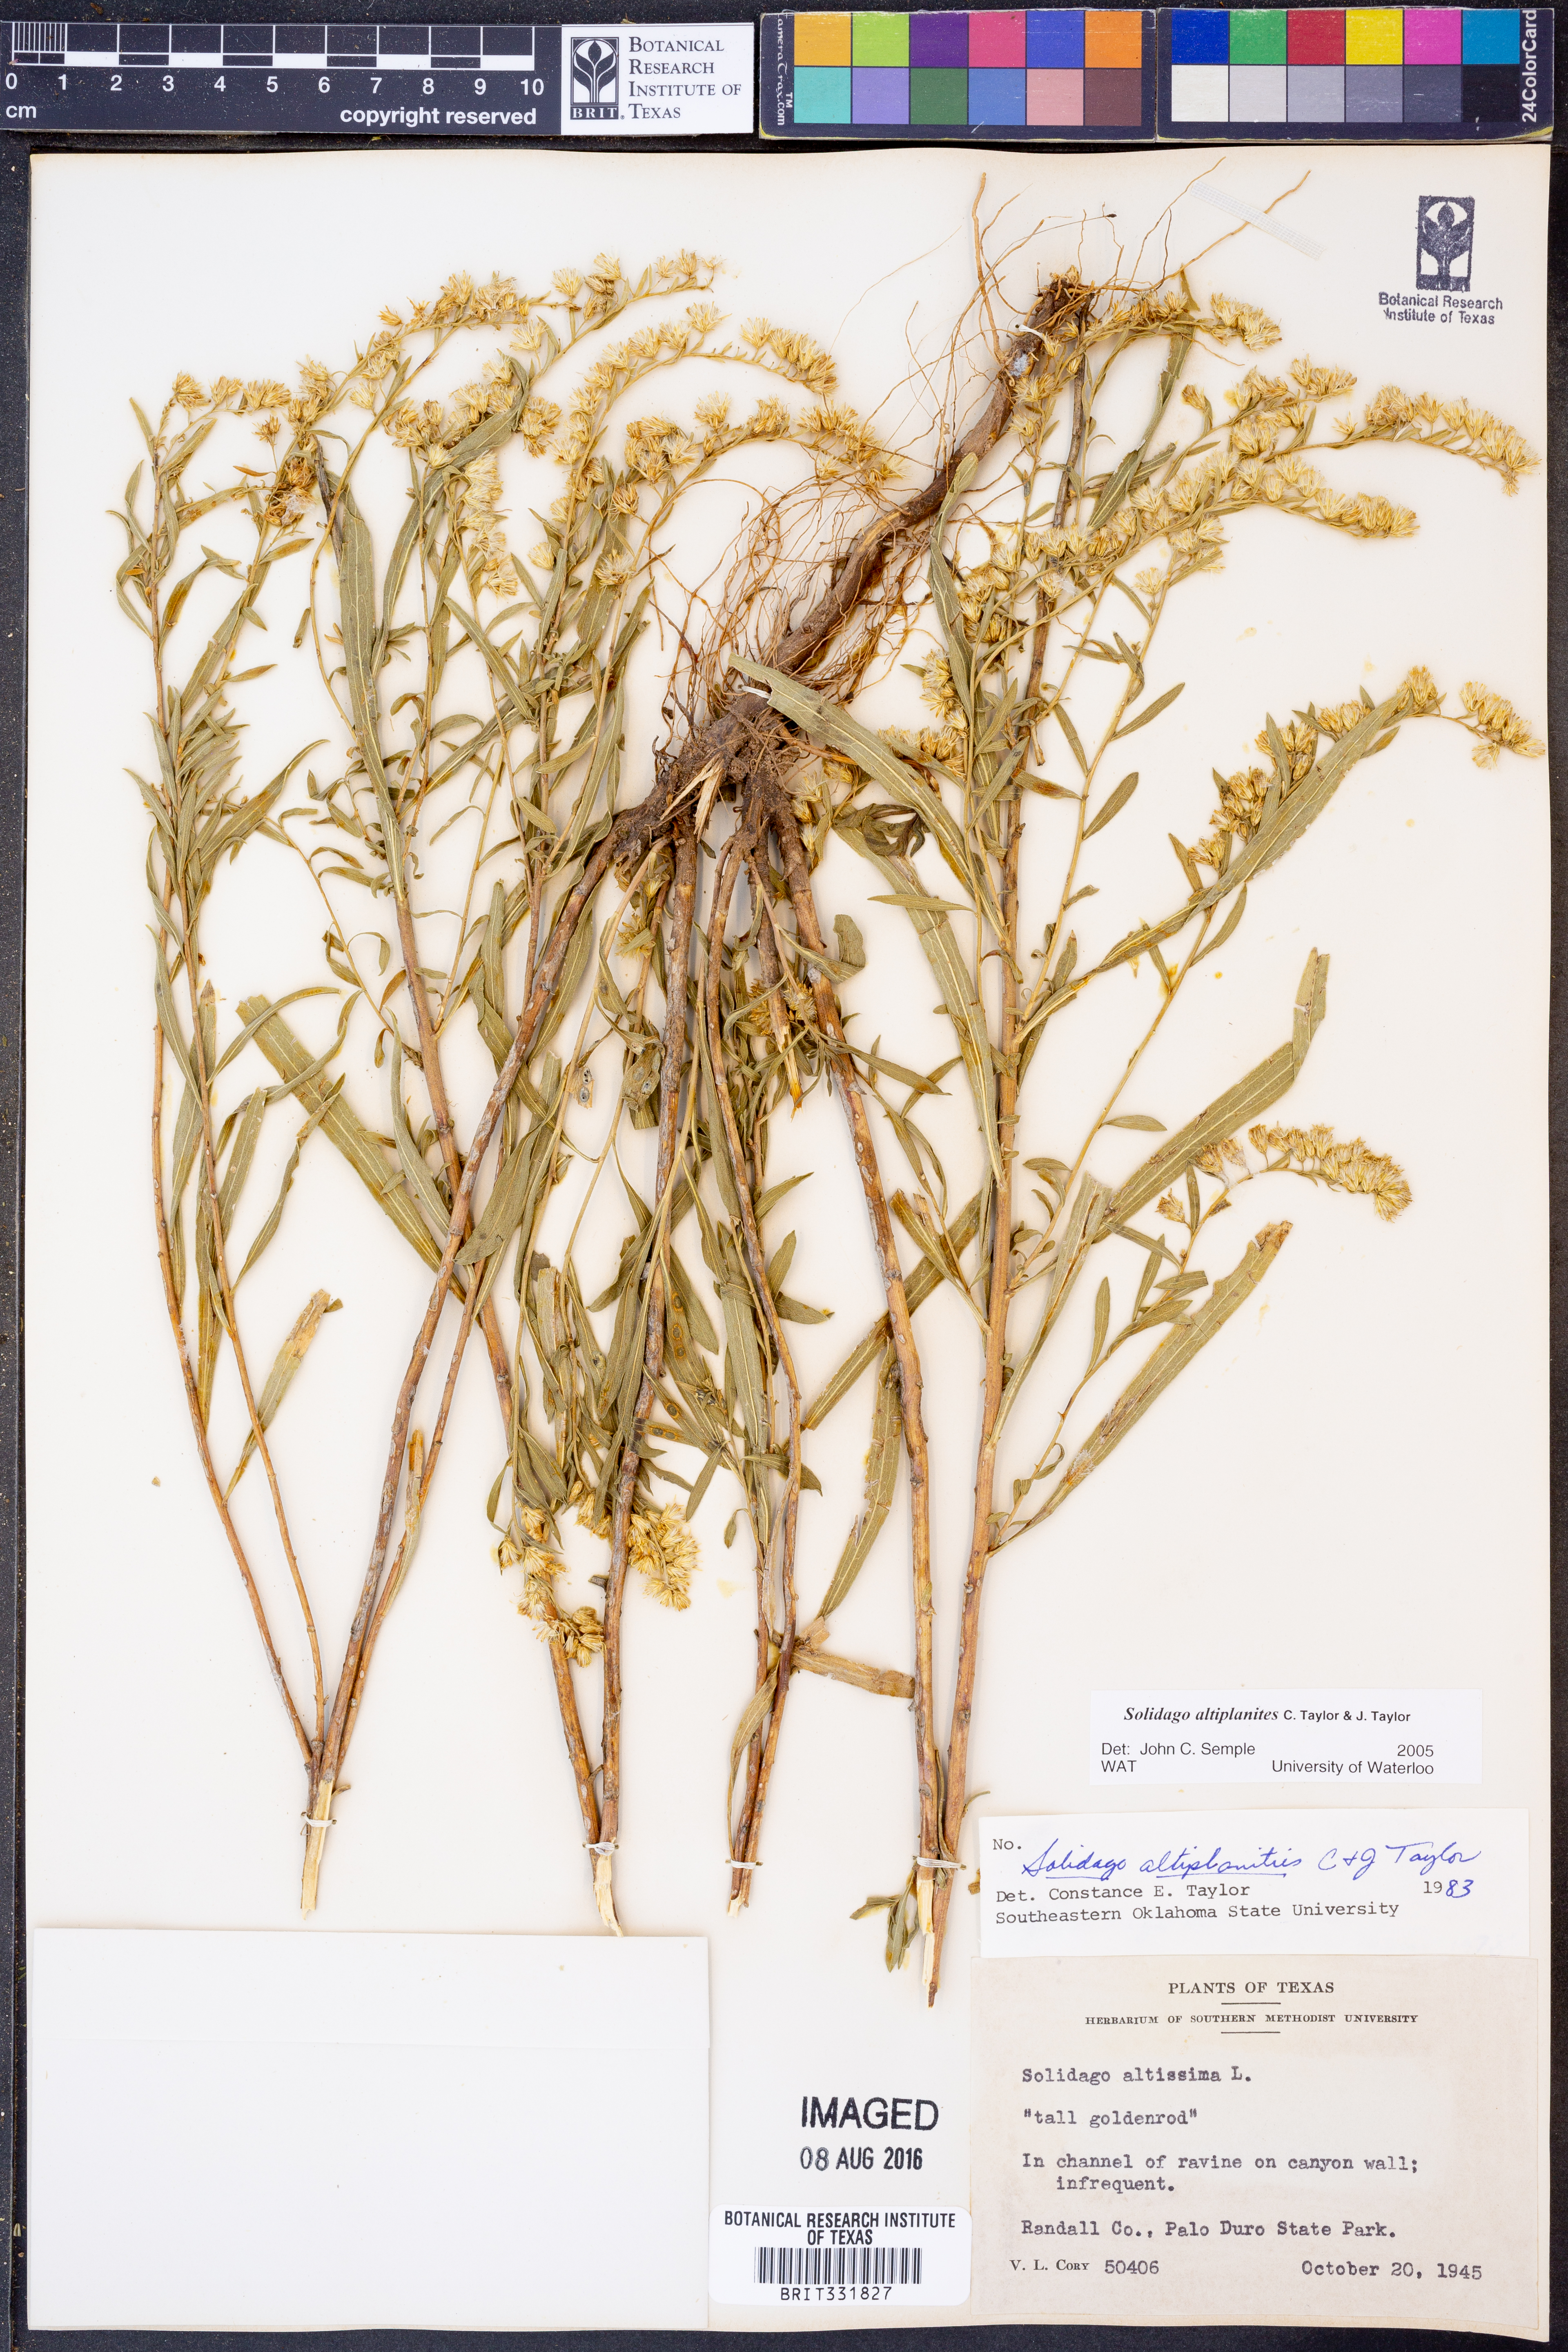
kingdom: Plantae
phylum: Tracheophyta
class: Magnoliopsida
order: Asterales
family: Asteraceae
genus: Solidago
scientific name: Solidago altiplanities
